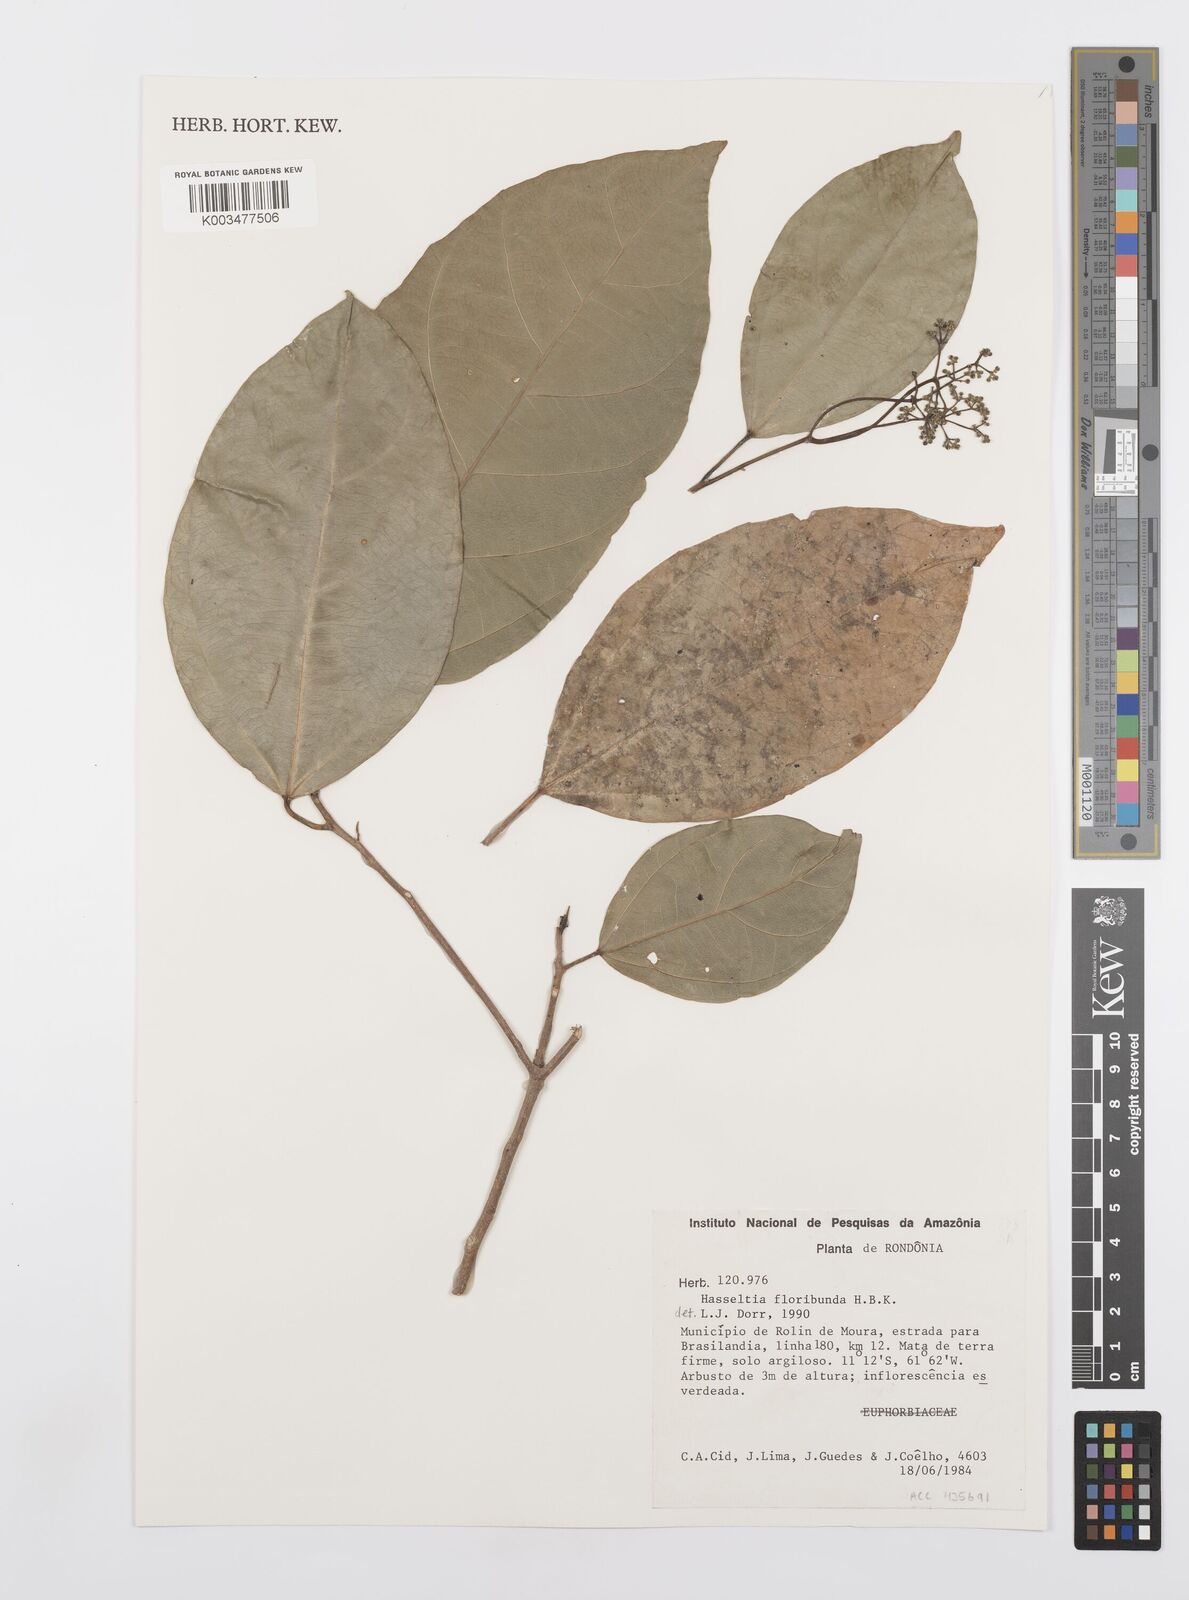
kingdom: Plantae
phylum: Tracheophyta
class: Magnoliopsida
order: Malpighiales
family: Salicaceae
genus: Hasseltia
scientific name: Hasseltia floribunda
